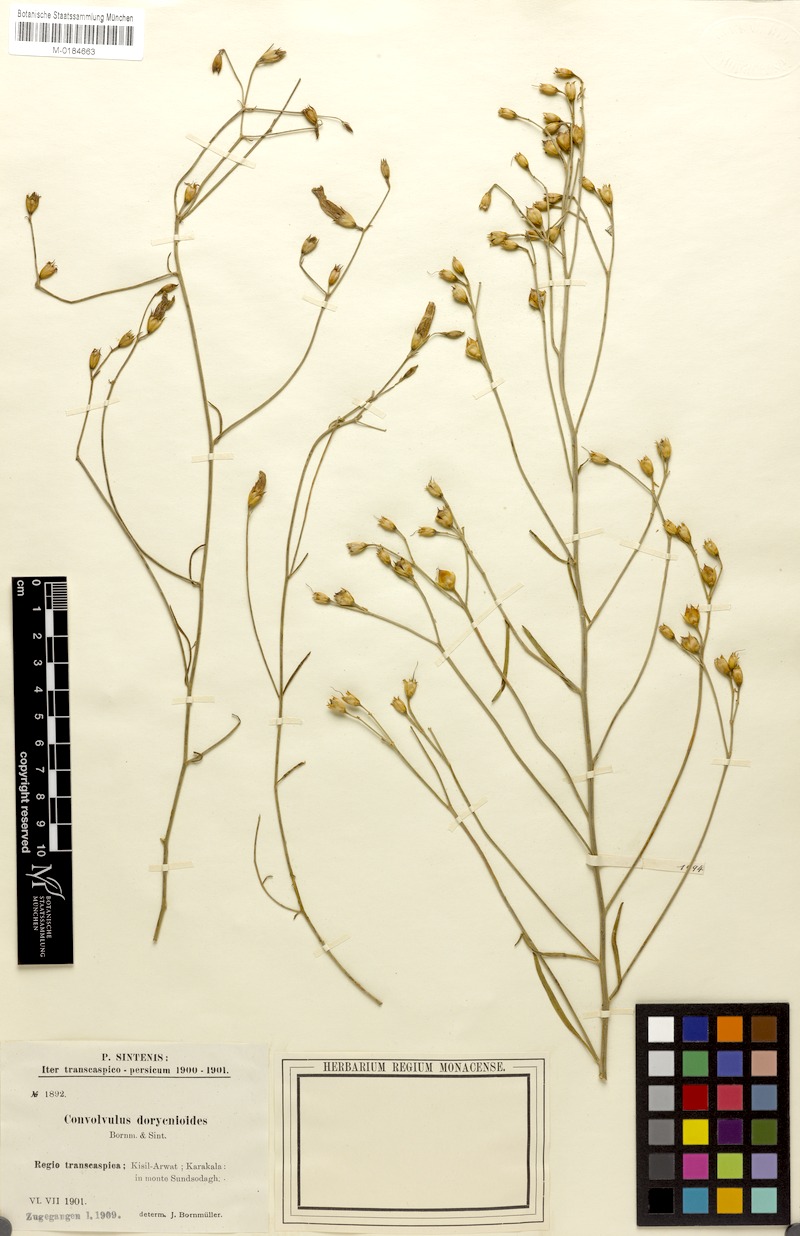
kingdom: Plantae
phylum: Tracheophyta
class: Magnoliopsida
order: Solanales
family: Convolvulaceae
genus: Convolvulus
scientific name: Convolvulus pseudocantabrica
